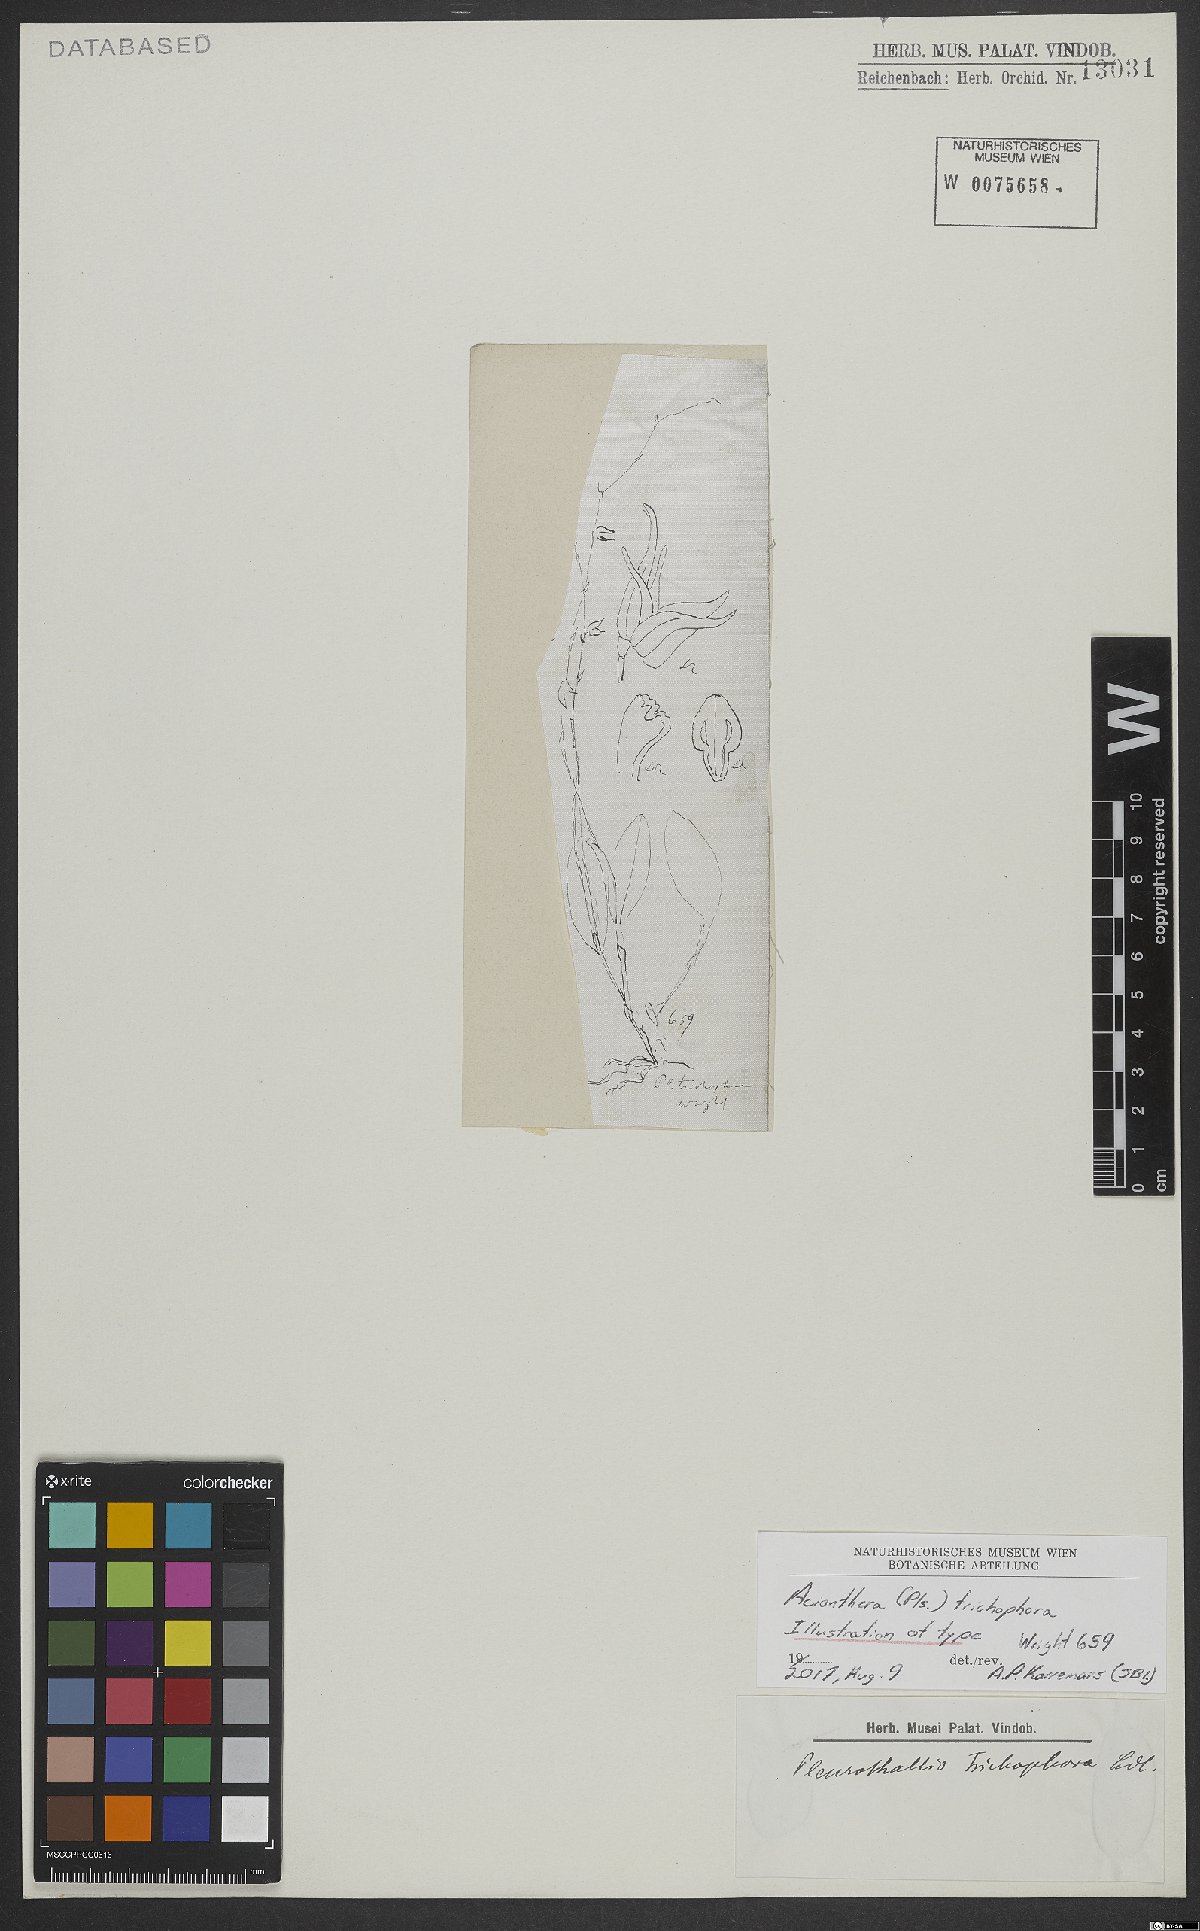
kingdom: Plantae
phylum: Tracheophyta
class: Liliopsida
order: Asparagales
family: Orchidaceae
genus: Acianthera
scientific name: Acianthera trichophora
